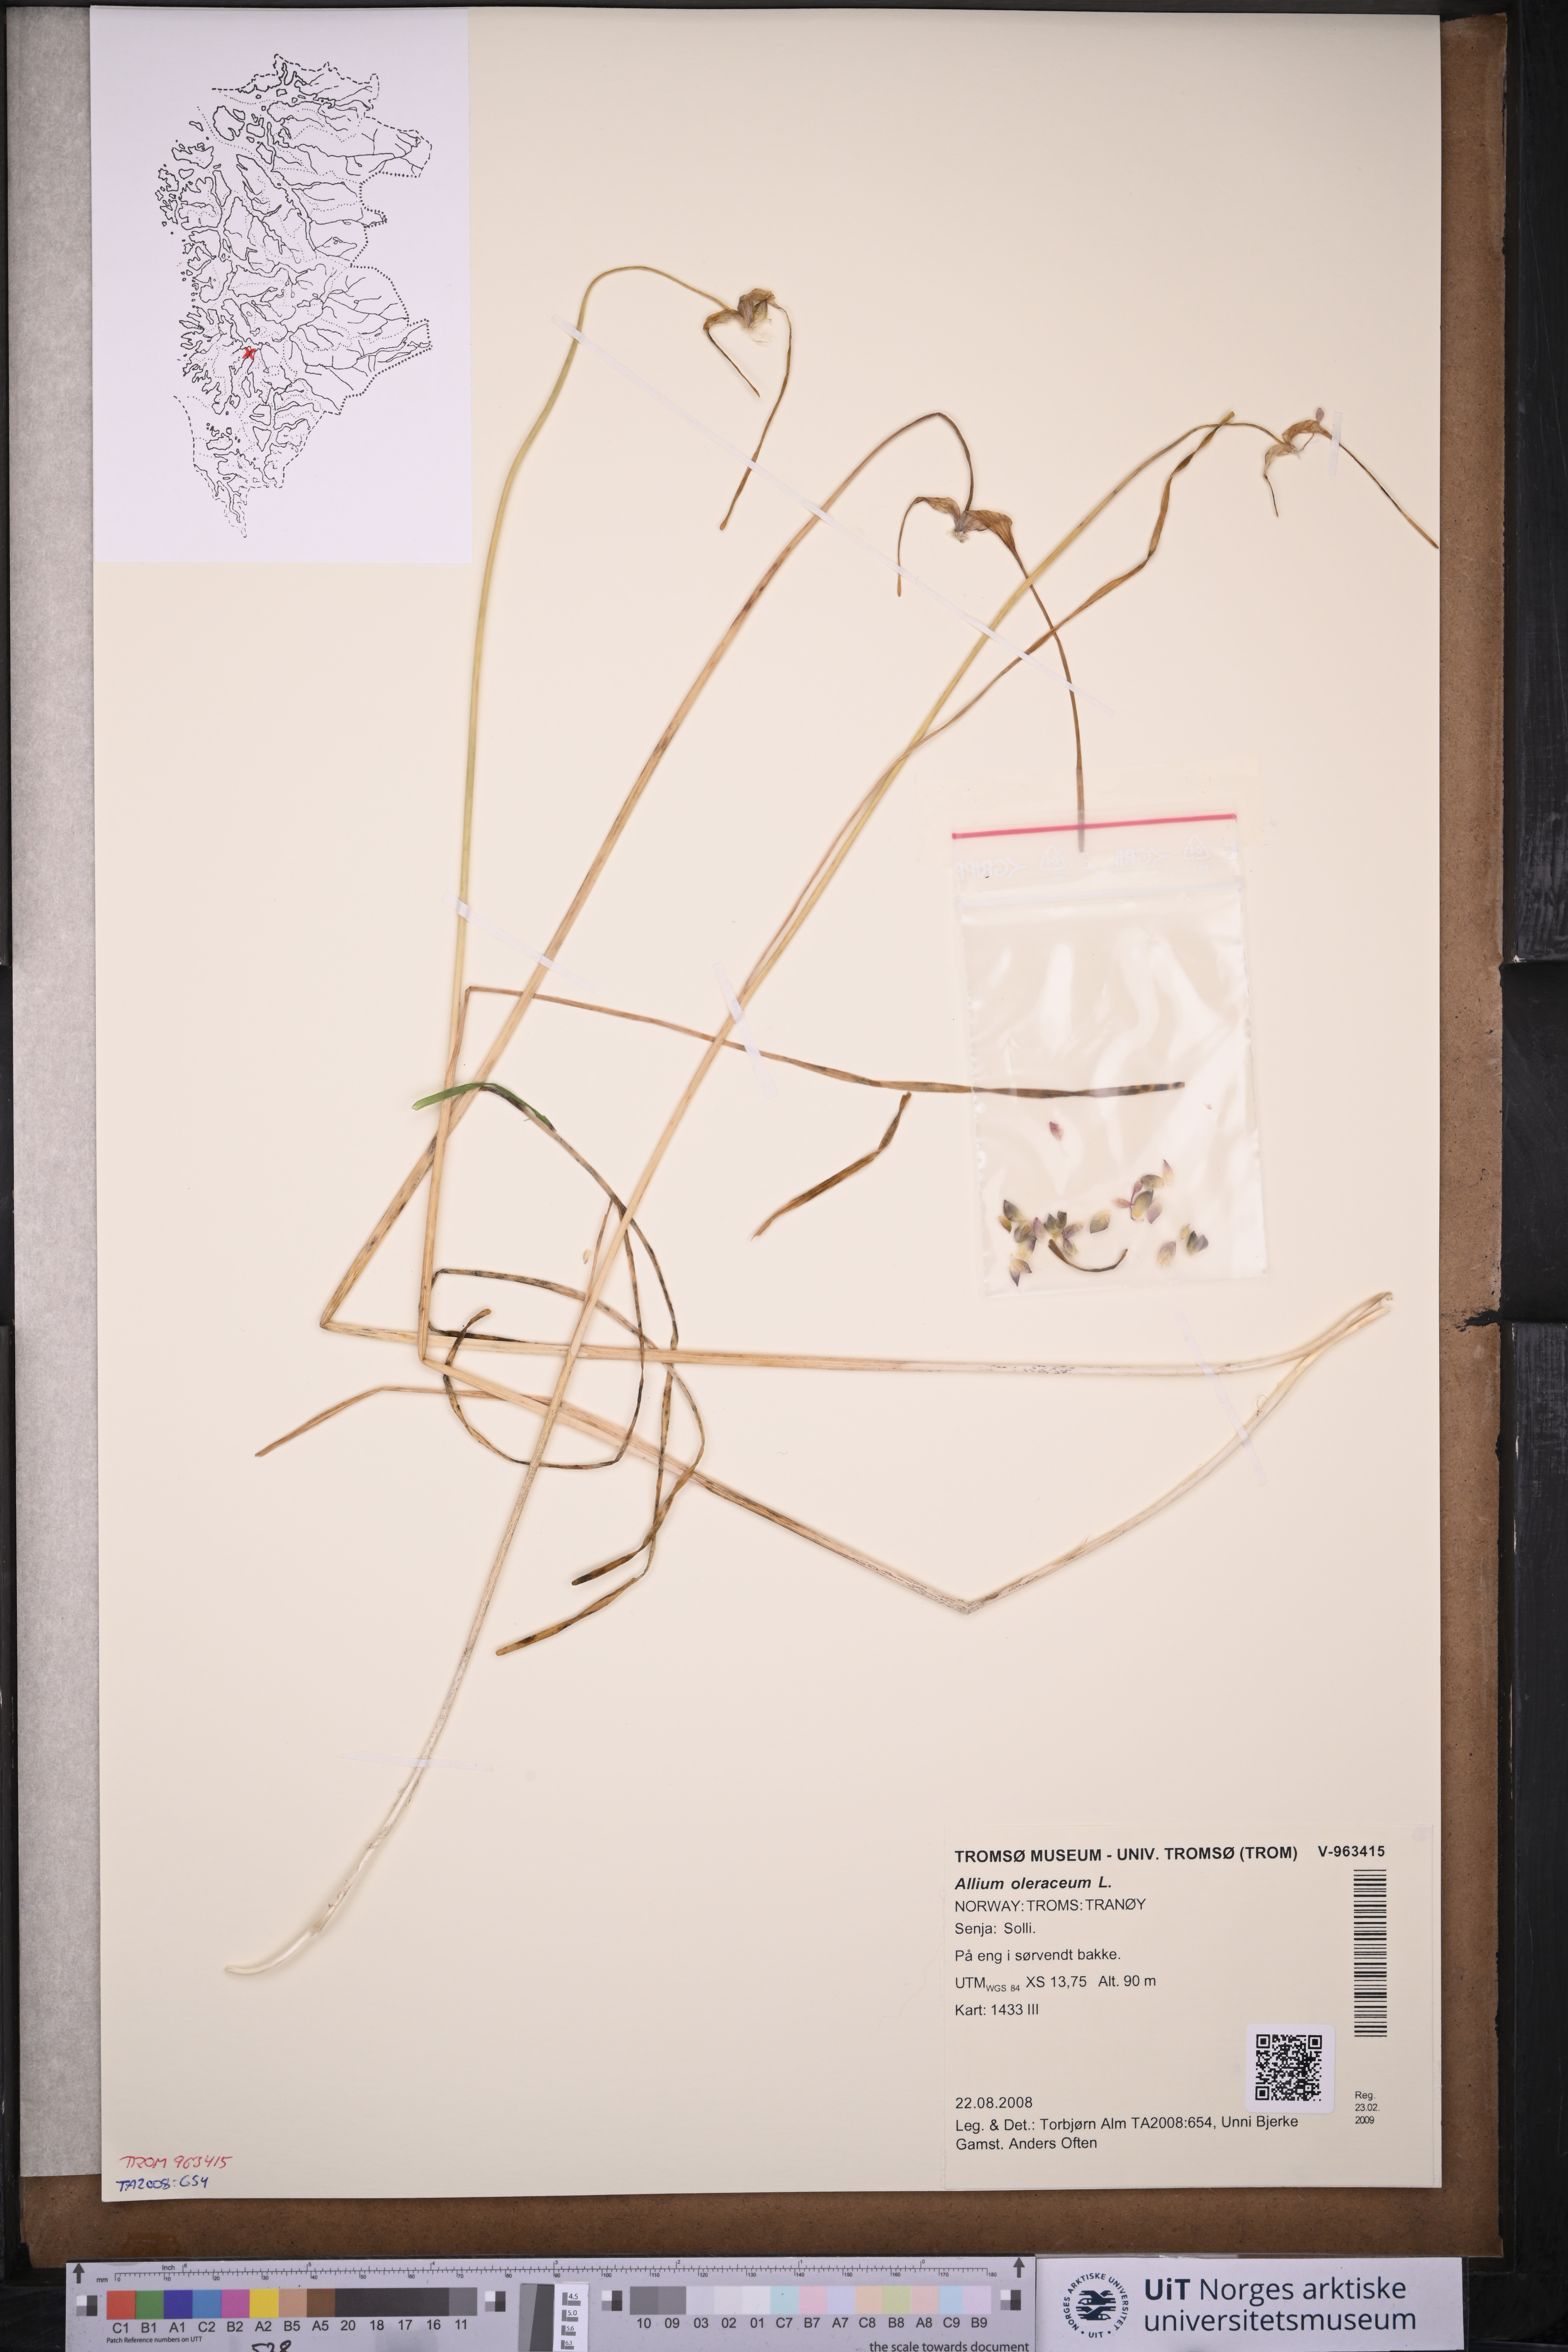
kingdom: Plantae
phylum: Tracheophyta
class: Liliopsida
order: Asparagales
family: Amaryllidaceae
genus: Allium
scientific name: Allium oleraceum
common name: Field garlic
